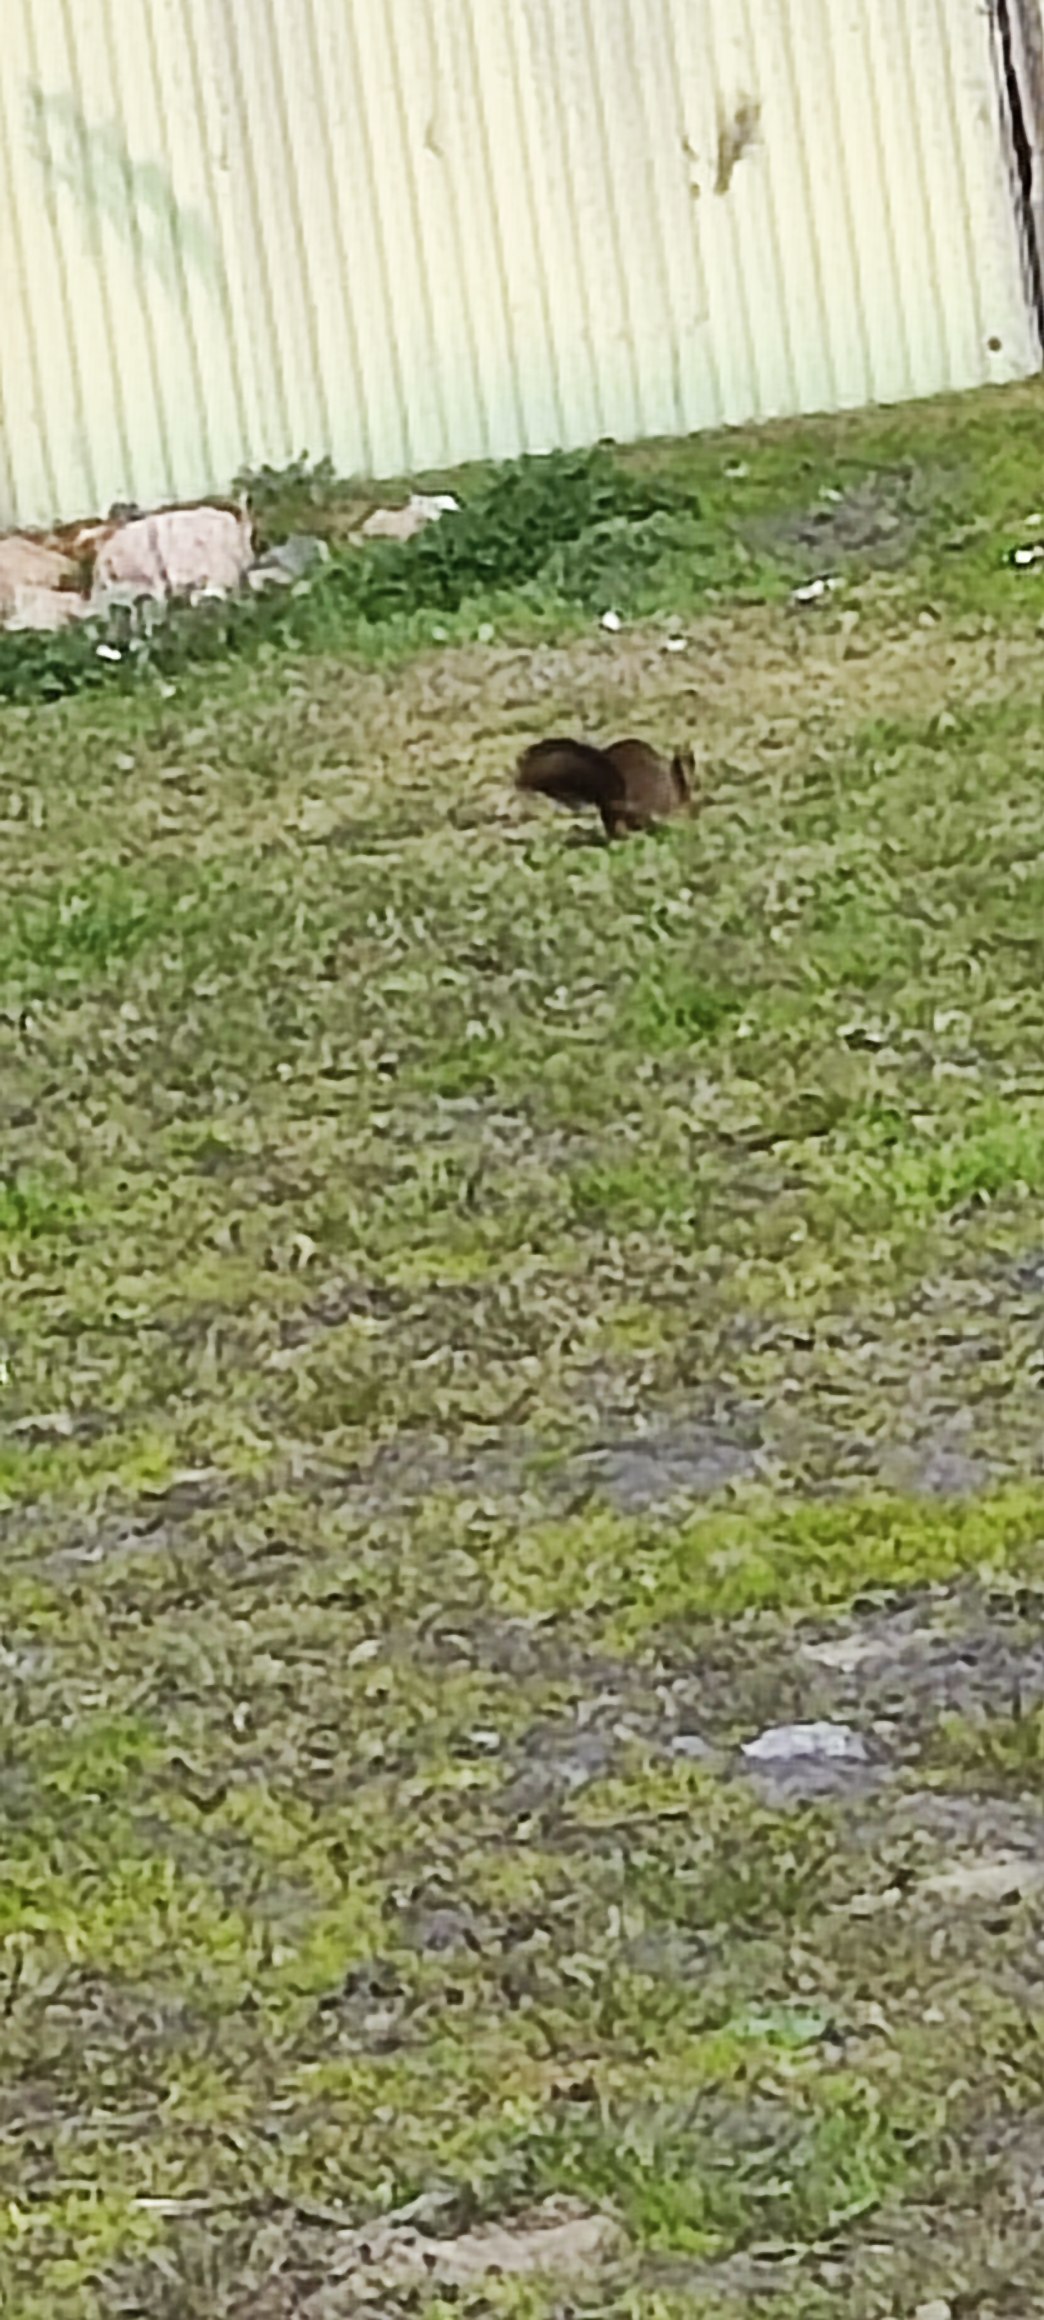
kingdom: Animalia
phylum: Chordata
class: Mammalia
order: Rodentia
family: Sciuridae
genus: Sciurus
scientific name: Sciurus vulgaris
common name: Egern
